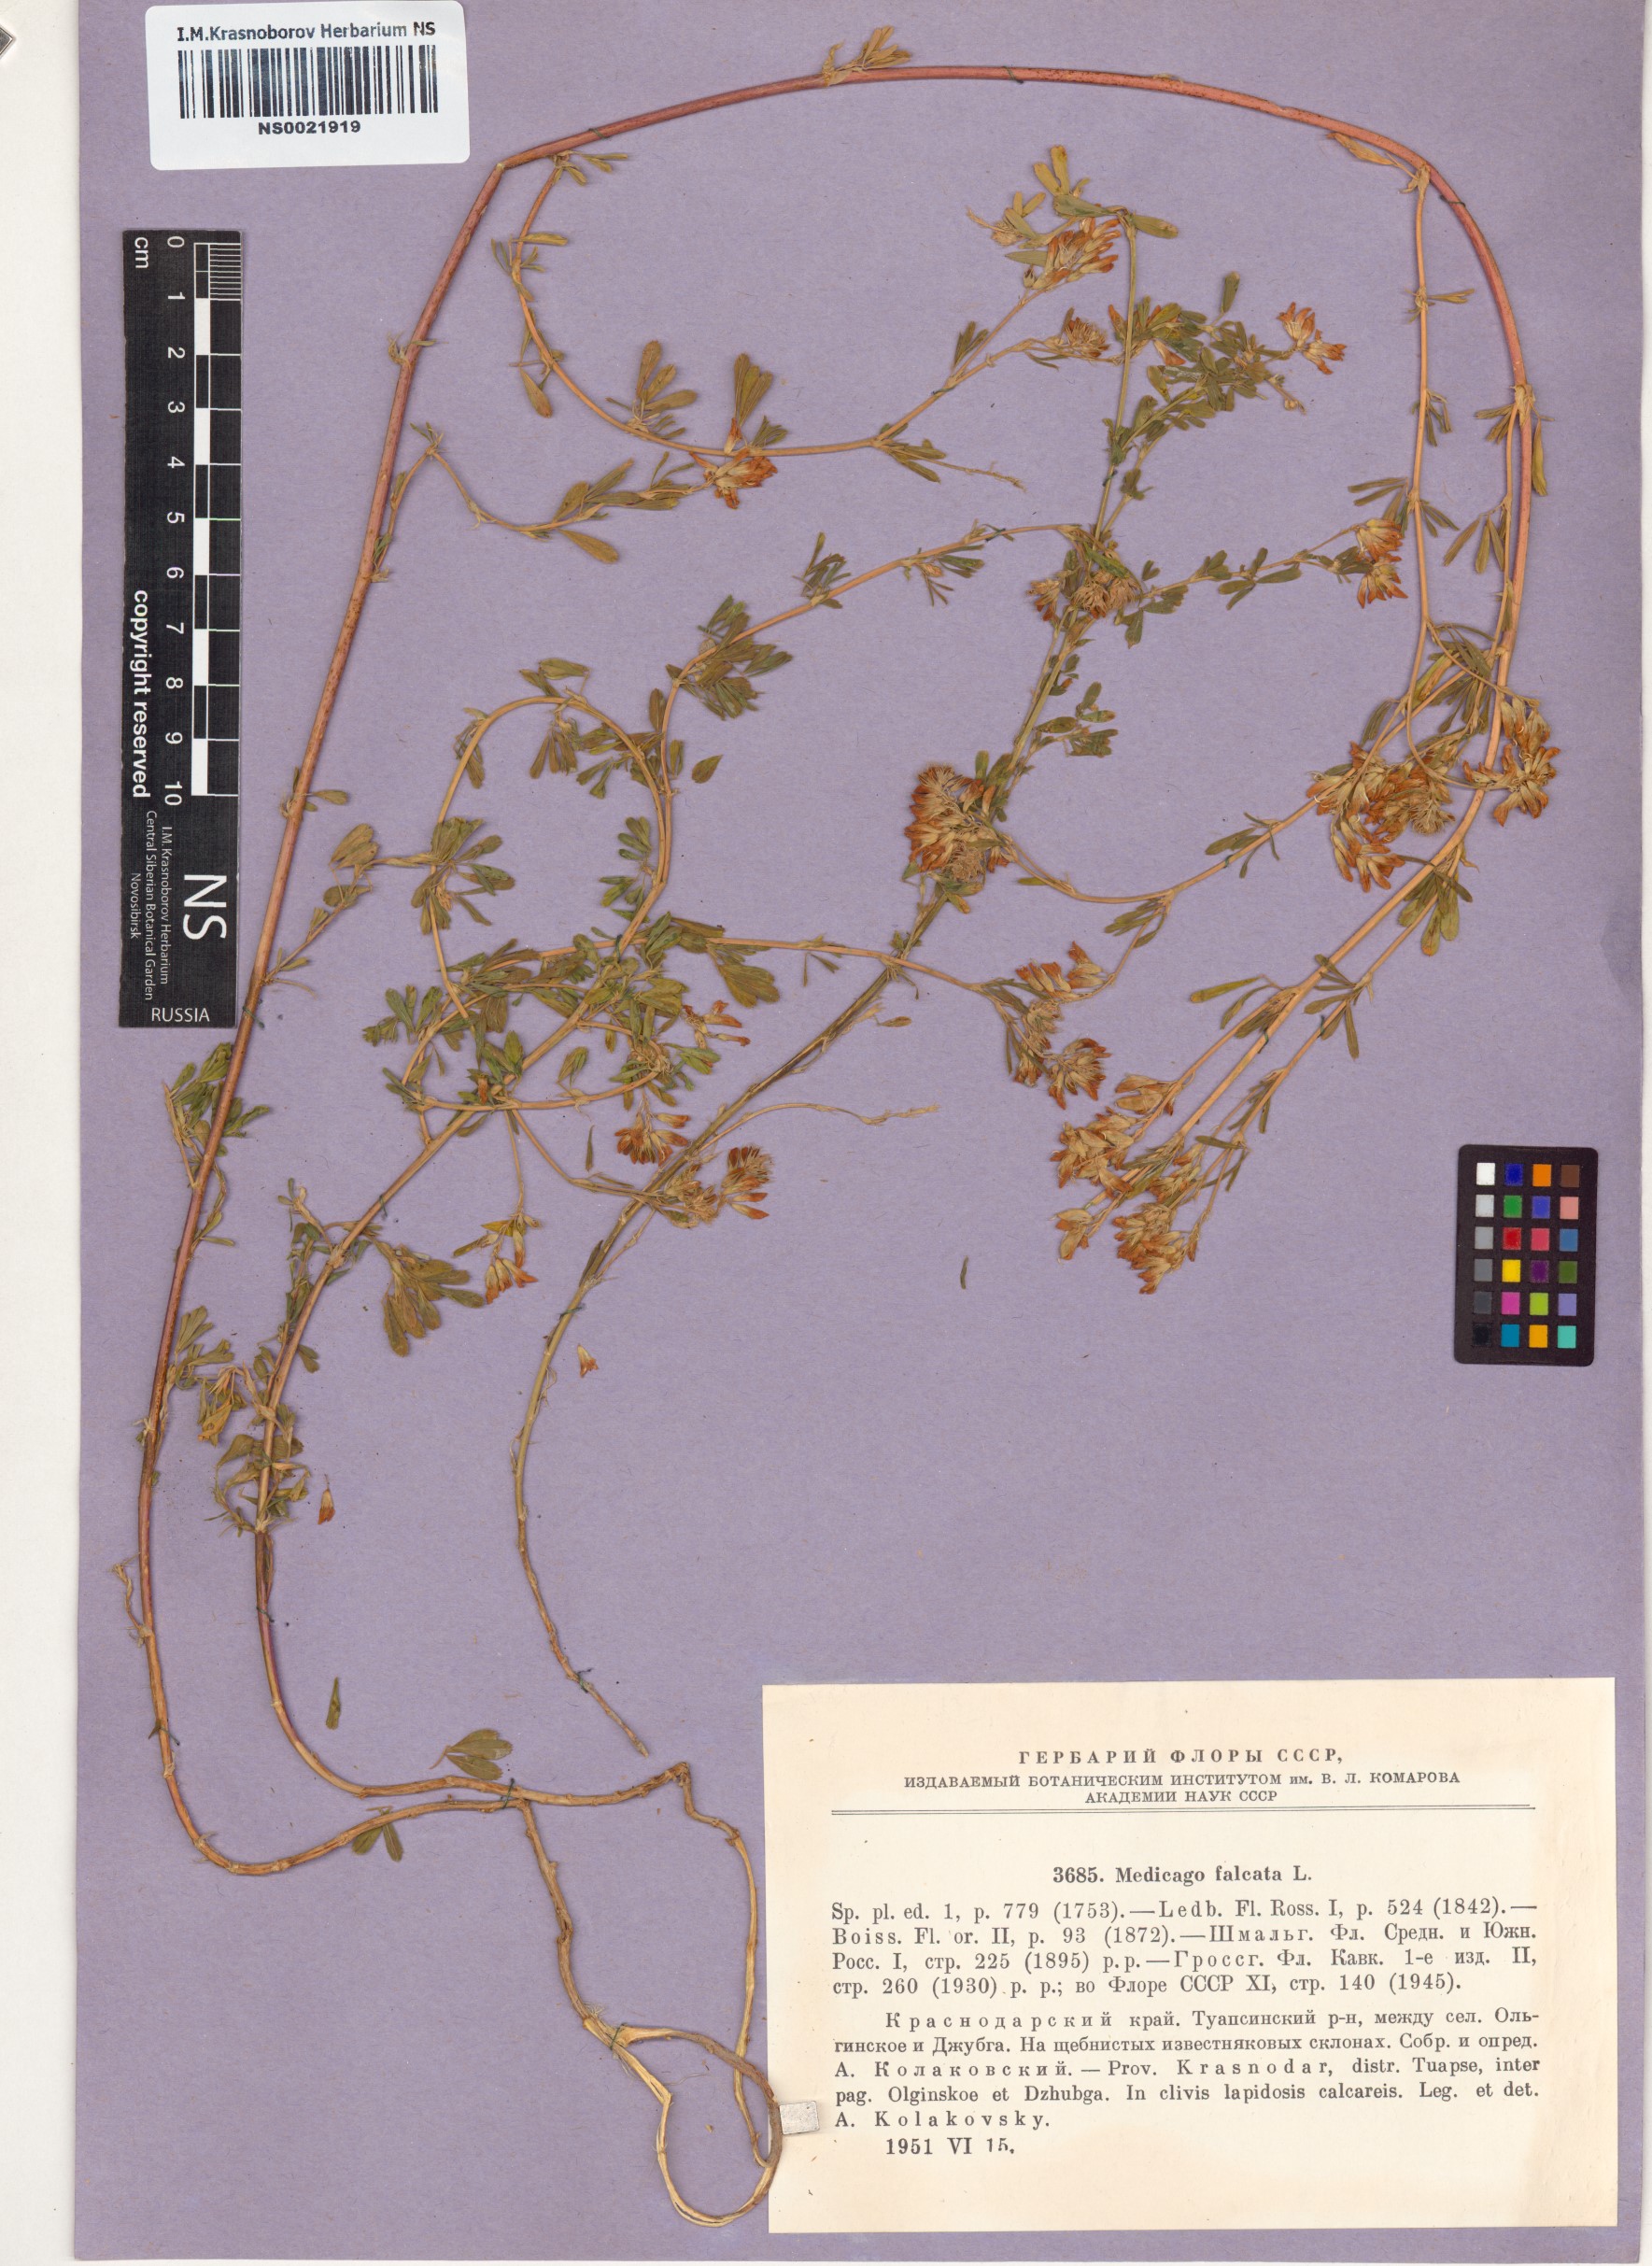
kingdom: Plantae
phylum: Tracheophyta
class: Magnoliopsida
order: Fabales
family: Fabaceae
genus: Medicago
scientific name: Medicago falcata
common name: Sickle medick
